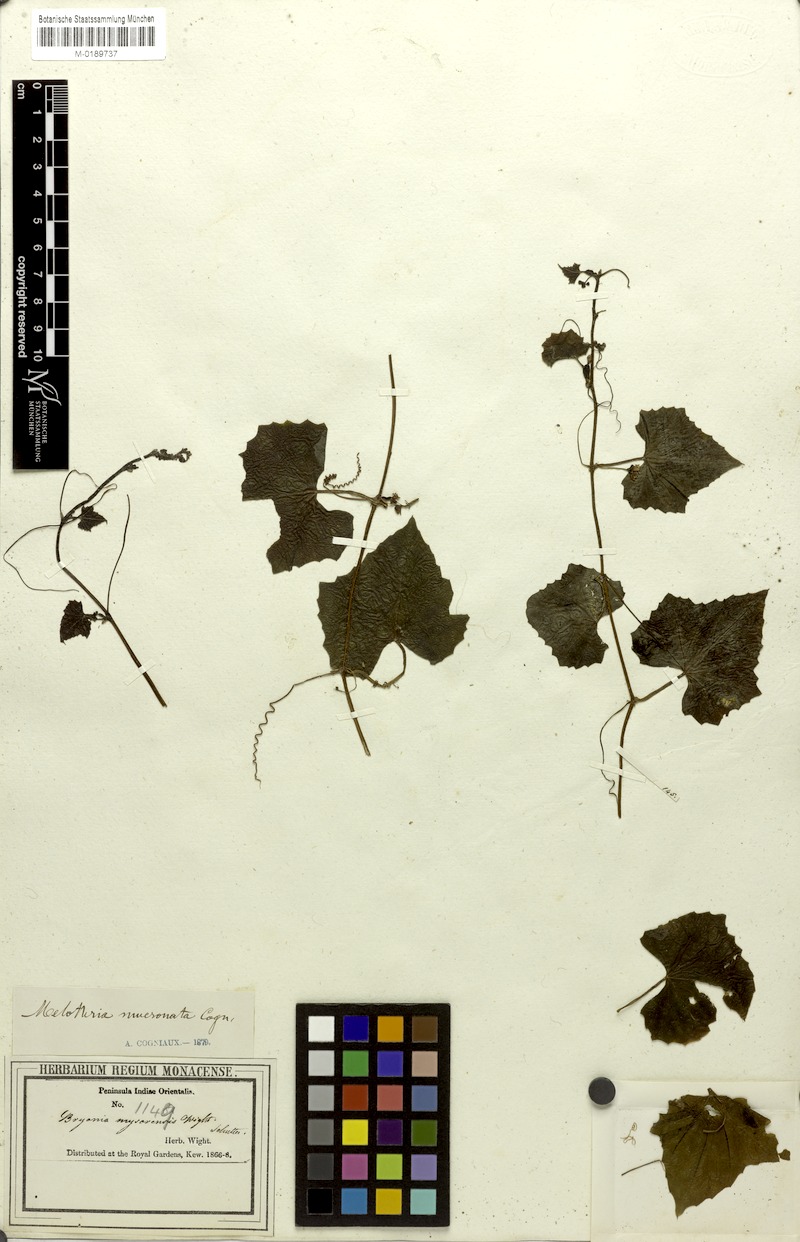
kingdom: Plantae
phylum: Tracheophyta
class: Magnoliopsida
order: Cucurbitales
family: Cucurbitaceae
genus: Zehneria
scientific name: Zehneria mucronata
